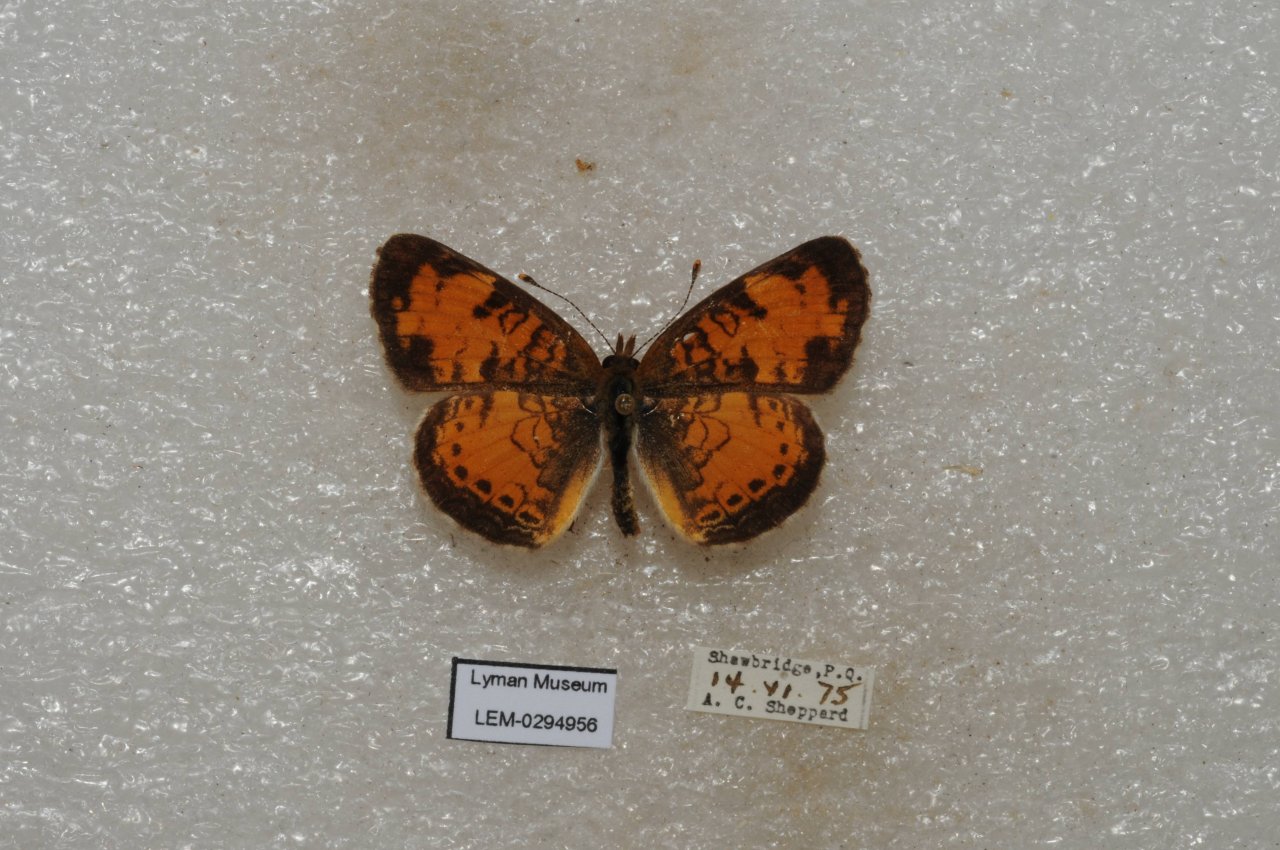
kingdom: Animalia
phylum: Arthropoda
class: Insecta
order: Lepidoptera
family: Nymphalidae
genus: Phyciodes
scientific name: Phyciodes tharos
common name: Northern Crescent
